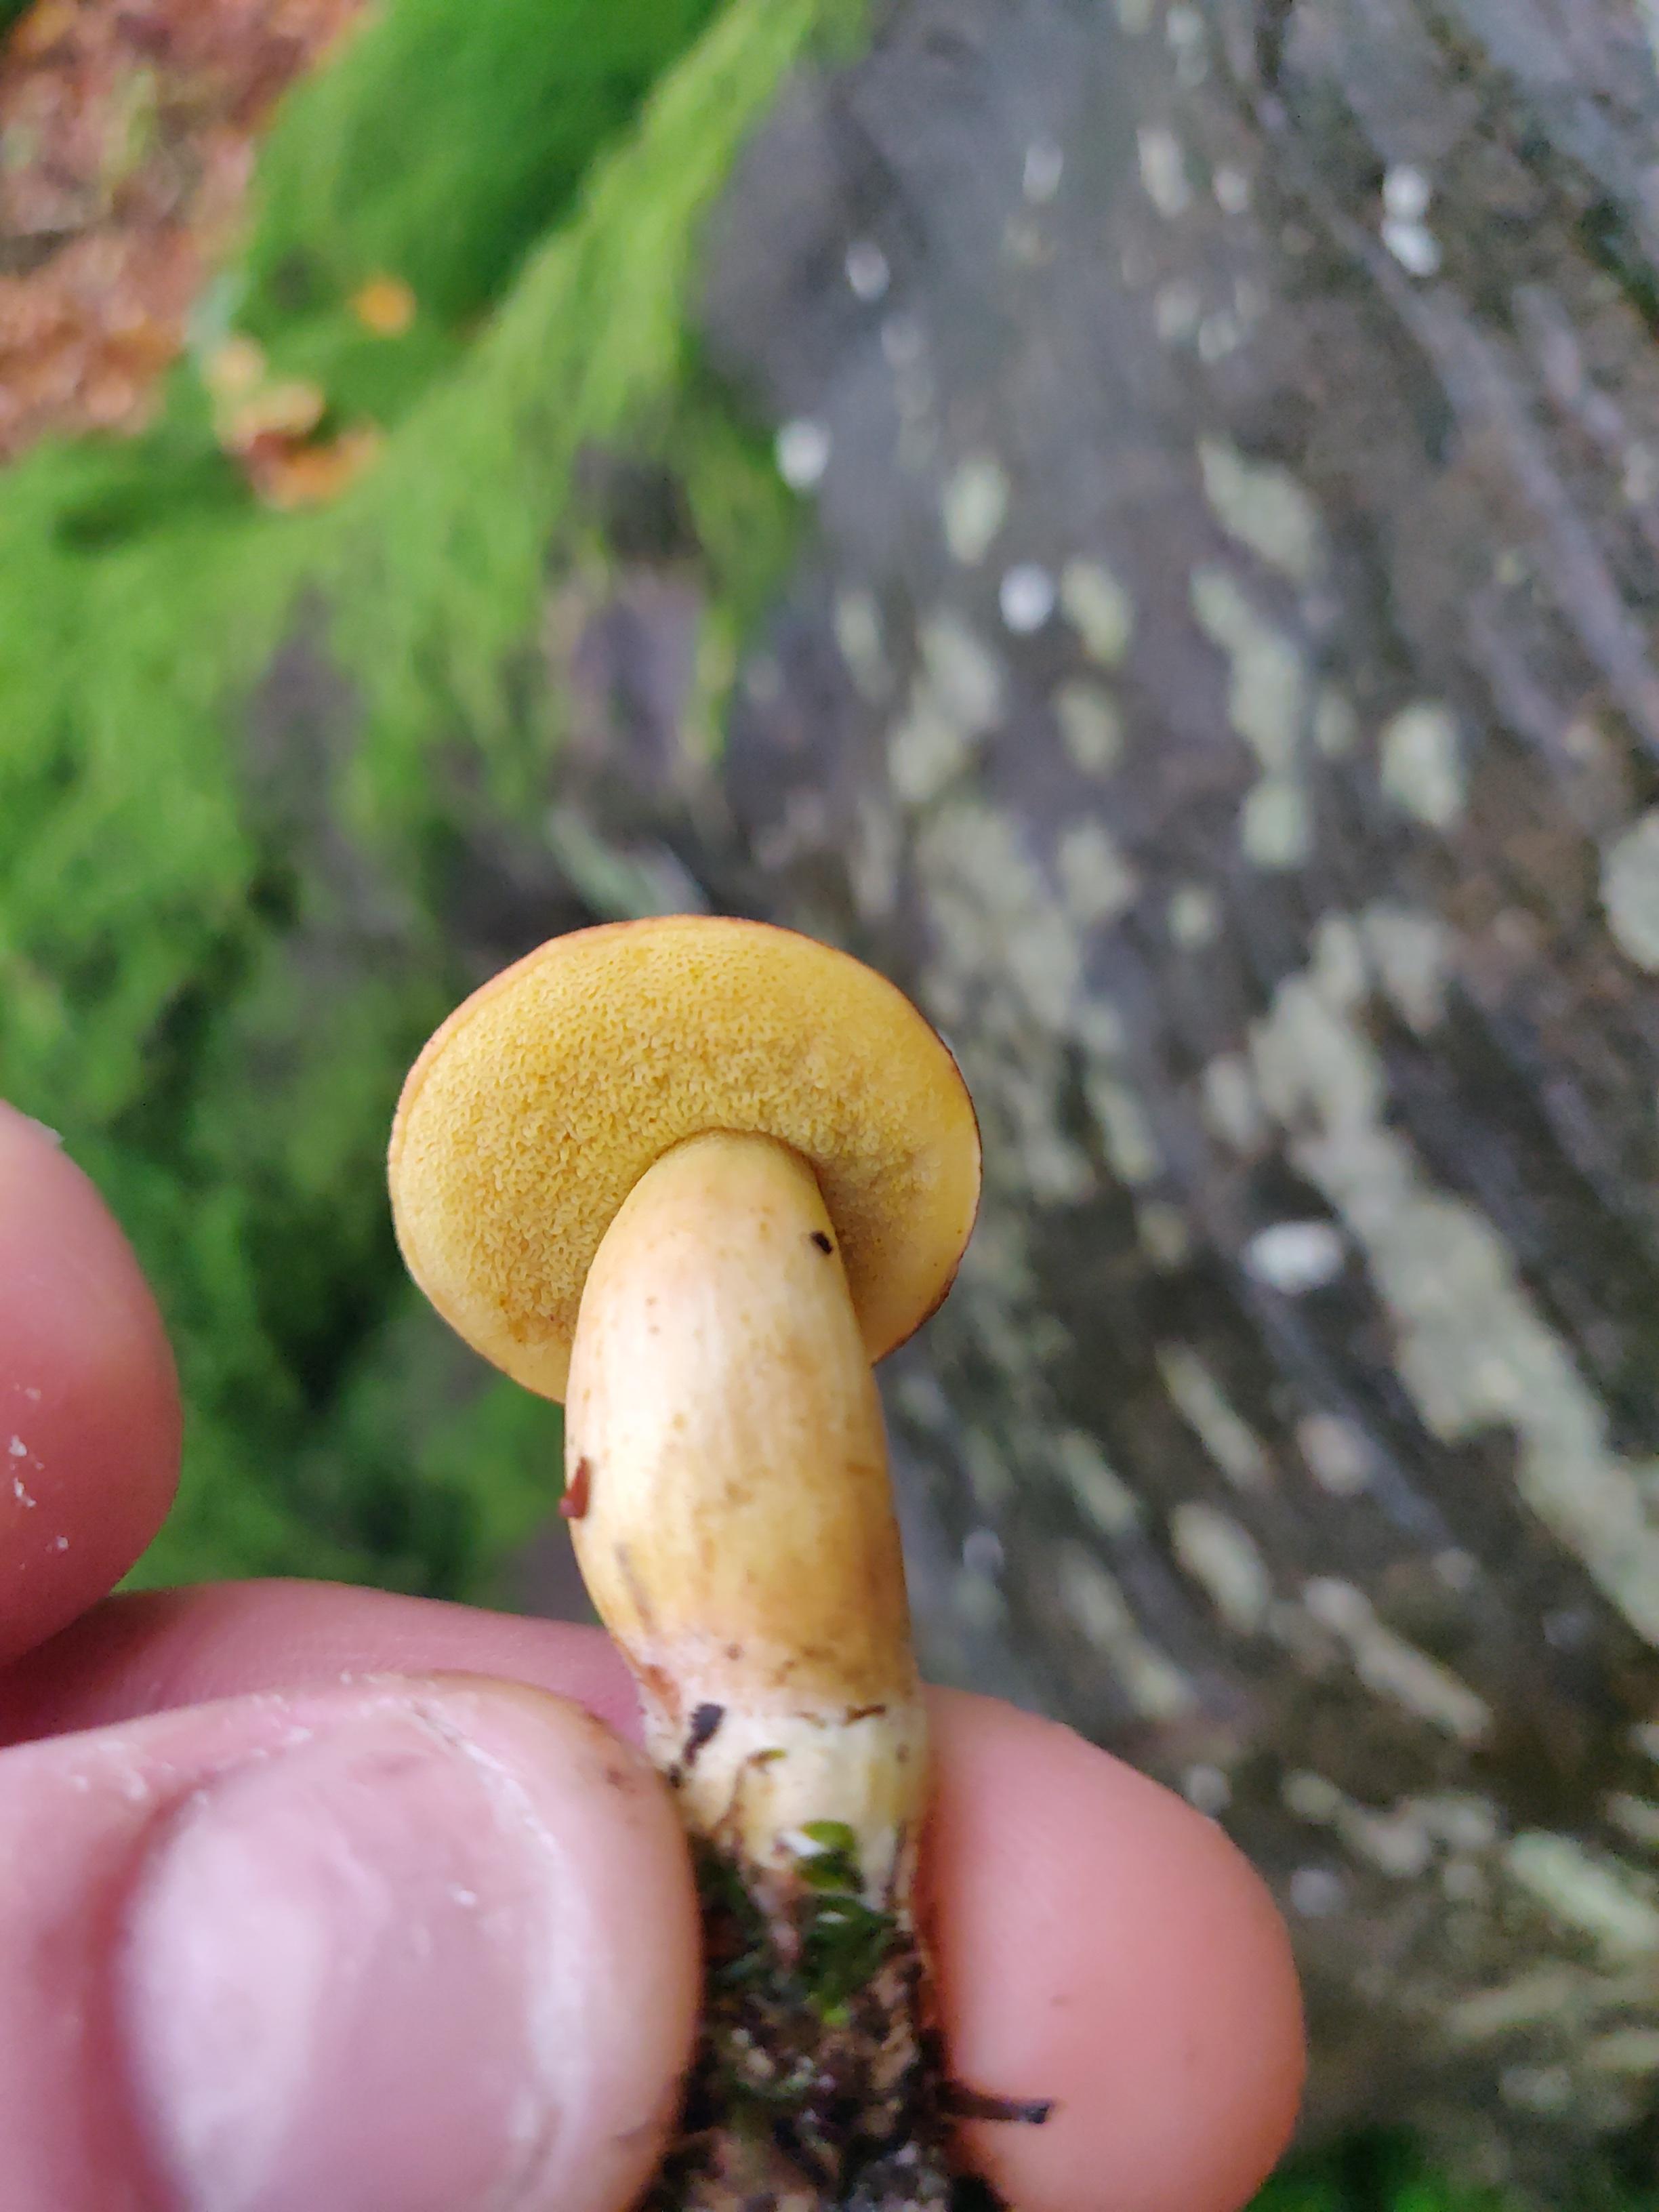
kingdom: Fungi
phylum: Basidiomycota
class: Agaricomycetes
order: Boletales
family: Boletaceae
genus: Xerocomellus
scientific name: Xerocomellus pruinatus
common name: dugget rørhat
